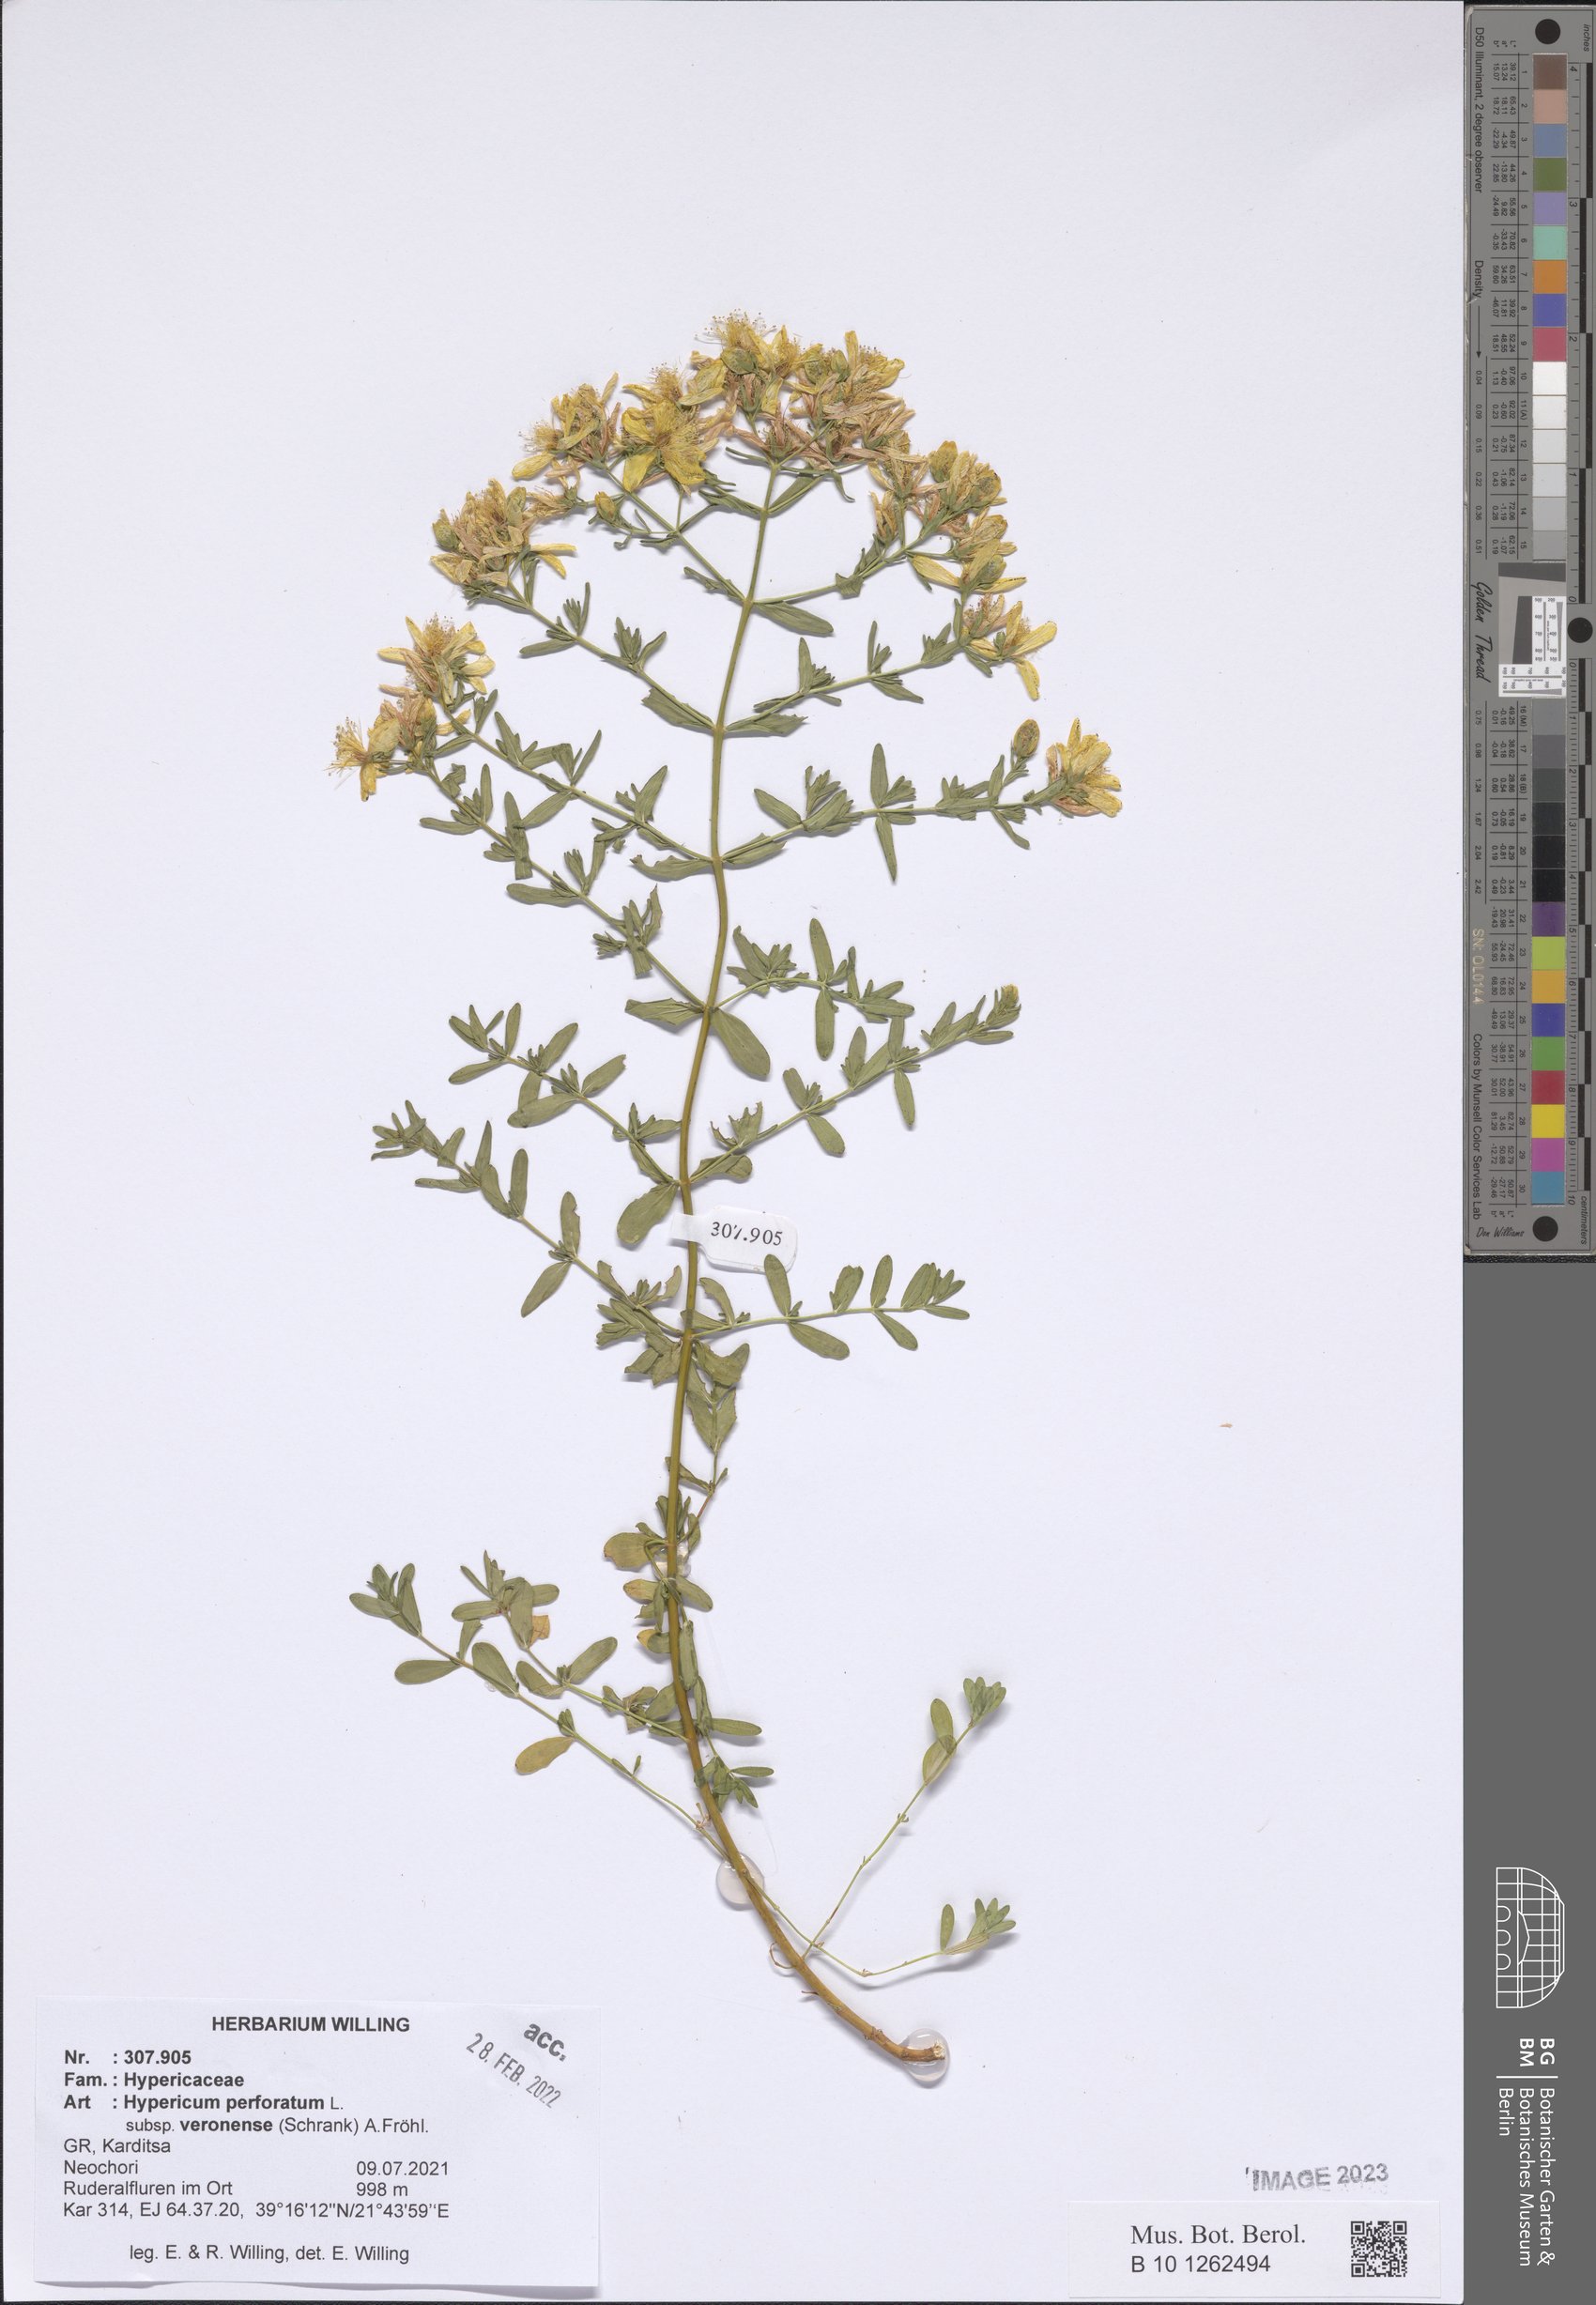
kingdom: Plantae
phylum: Tracheophyta
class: Magnoliopsida
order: Malpighiales
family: Hypericaceae
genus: Hypericum
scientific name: Hypericum veronense
